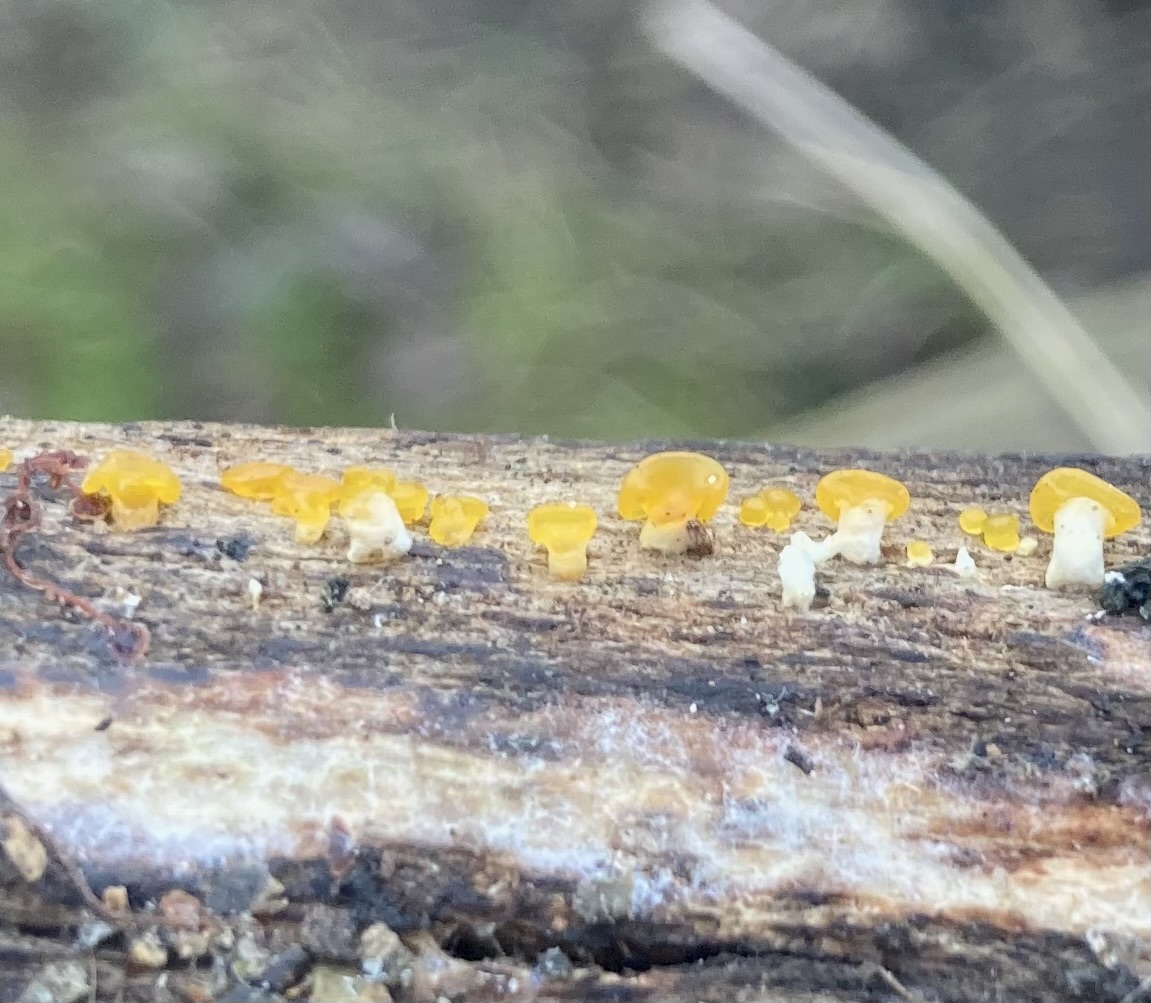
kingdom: Fungi
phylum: Basidiomycota
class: Dacrymycetes
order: Dacrymycetales
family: Dacrymycetaceae
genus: Dacrymyces
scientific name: Dacrymyces capitatus
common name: stilket tåresvamp
